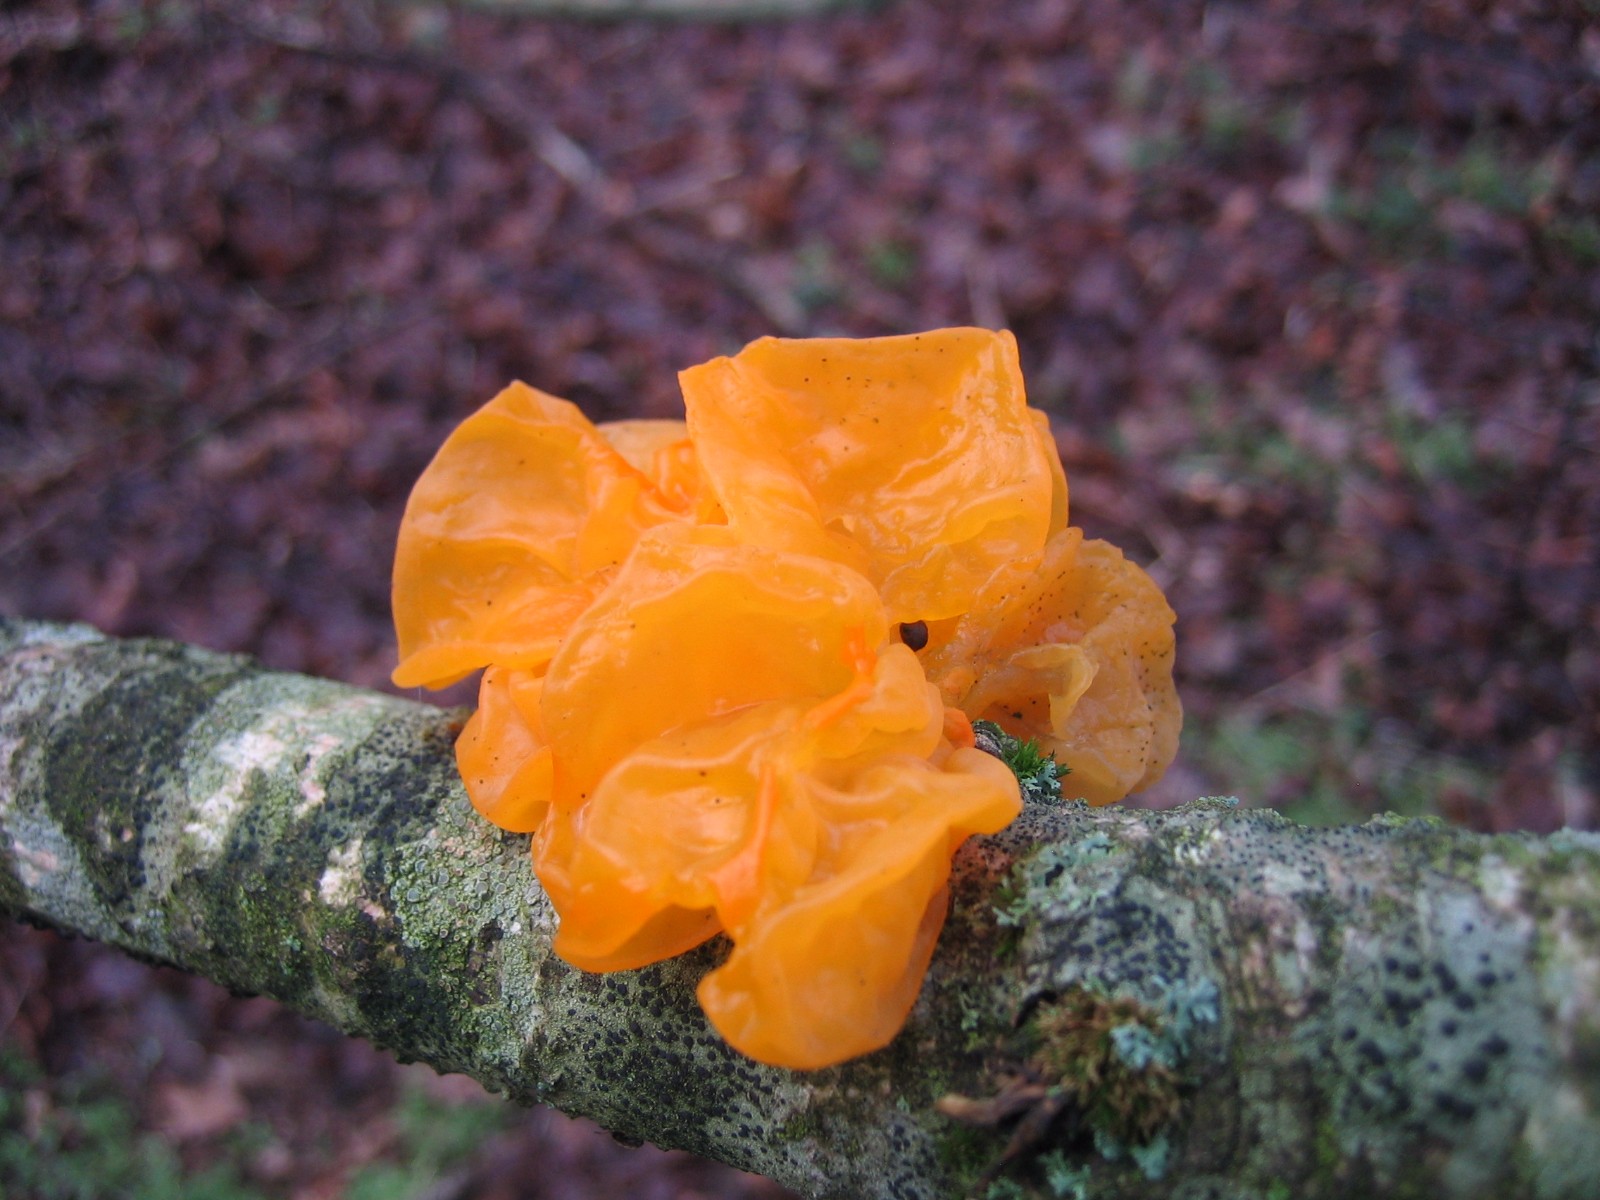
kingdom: Fungi
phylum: Basidiomycota
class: Tremellomycetes
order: Tremellales
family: Tremellaceae
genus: Tremella
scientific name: Tremella mesenterica
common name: gul bævresvamp
